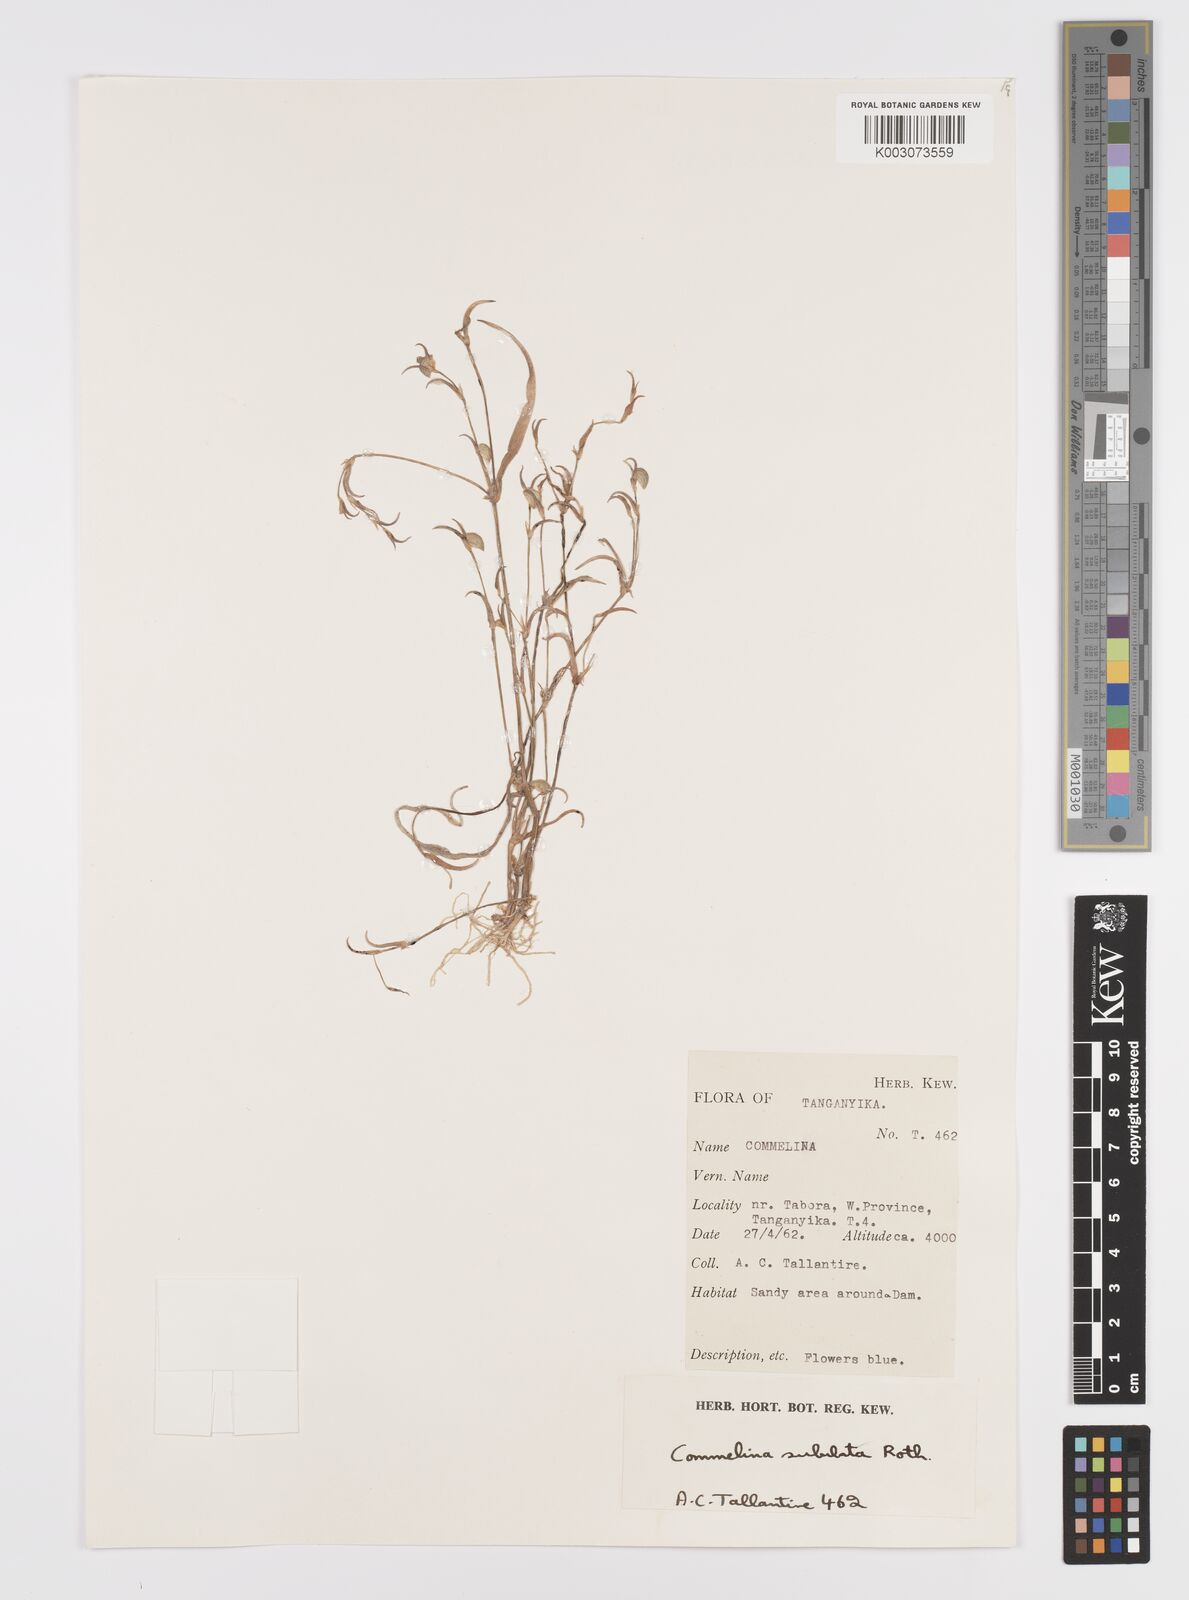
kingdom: Plantae
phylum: Tracheophyta
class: Liliopsida
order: Commelinales
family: Commelinaceae
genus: Commelina
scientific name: Commelina subulata
